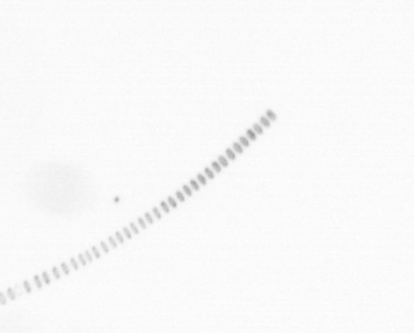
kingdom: Chromista
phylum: Ochrophyta
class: Bacillariophyceae
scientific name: Bacillariophyceae
